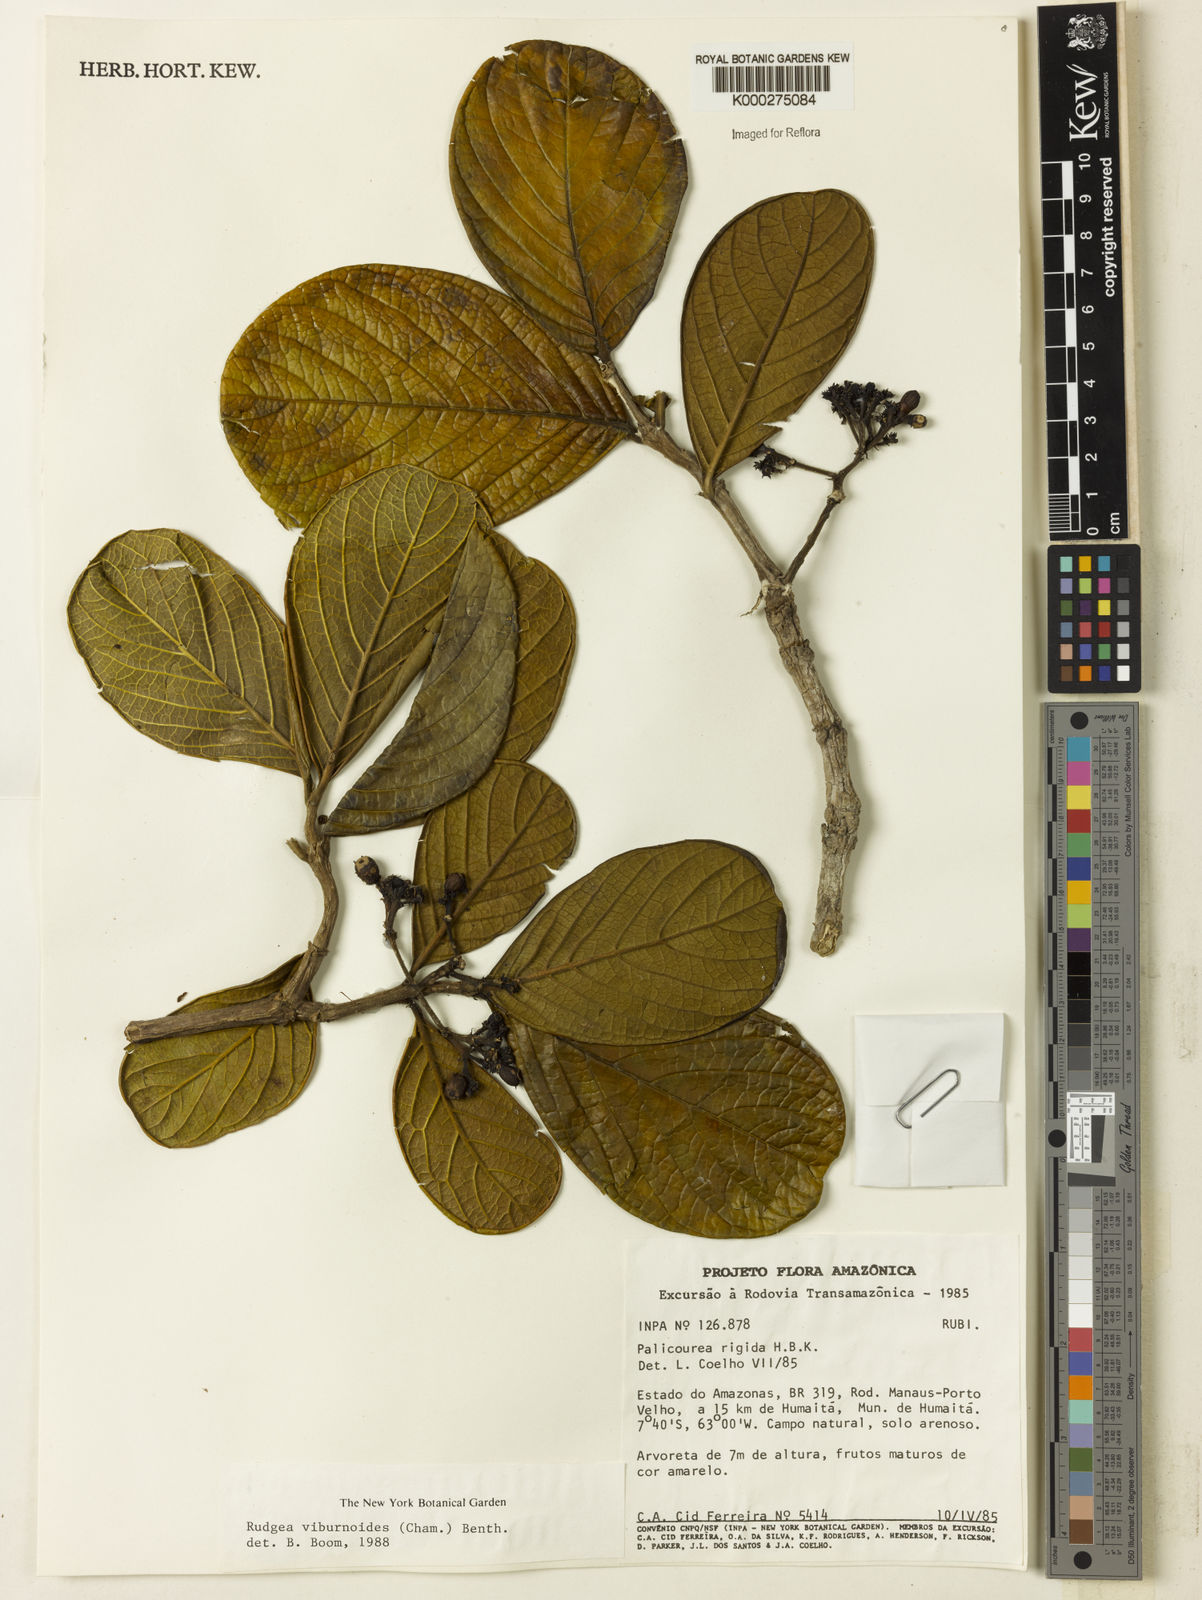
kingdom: Plantae
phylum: Tracheophyta
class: Magnoliopsida
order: Gentianales
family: Rubiaceae
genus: Rudgea
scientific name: Rudgea viburnoides
